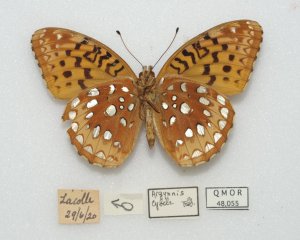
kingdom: Animalia
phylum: Arthropoda
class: Insecta
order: Lepidoptera
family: Nymphalidae
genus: Speyeria
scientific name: Speyeria cybele
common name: Great Spangled Fritillary
